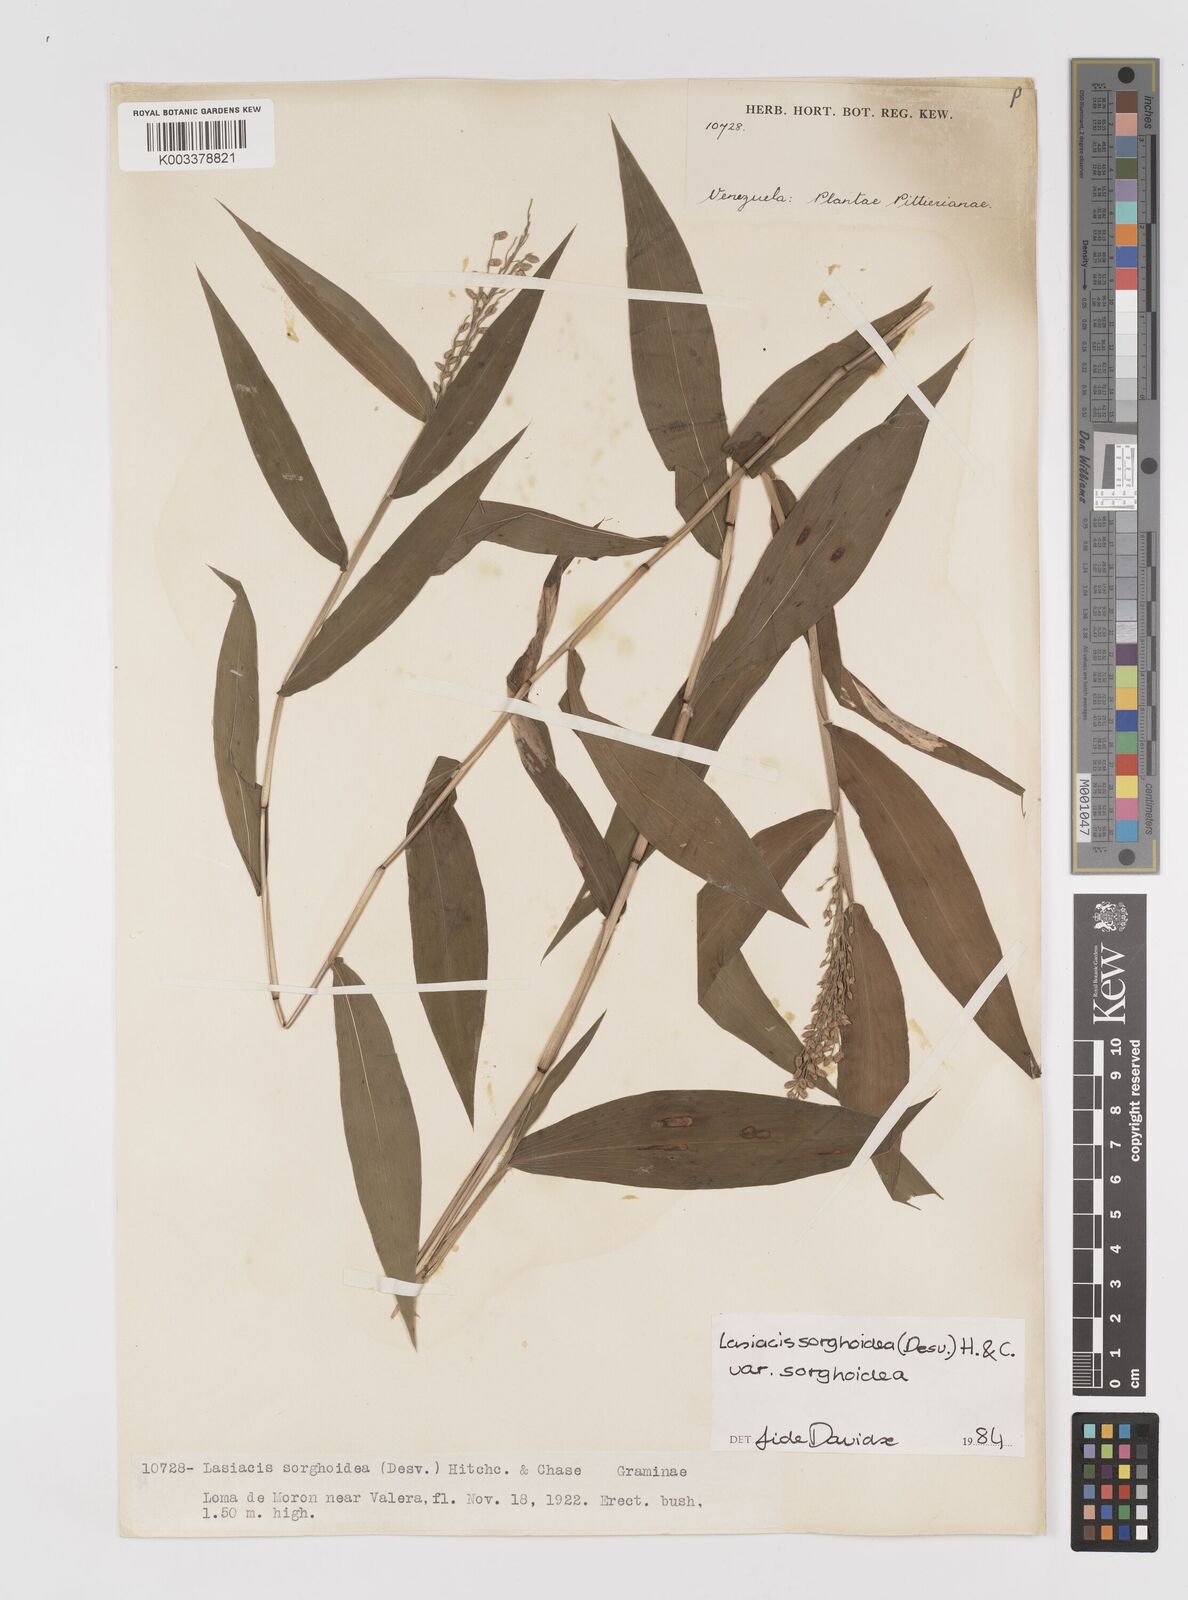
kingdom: Plantae
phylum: Tracheophyta
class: Liliopsida
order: Poales
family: Poaceae
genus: Lasiacis
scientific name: Lasiacis maculata
